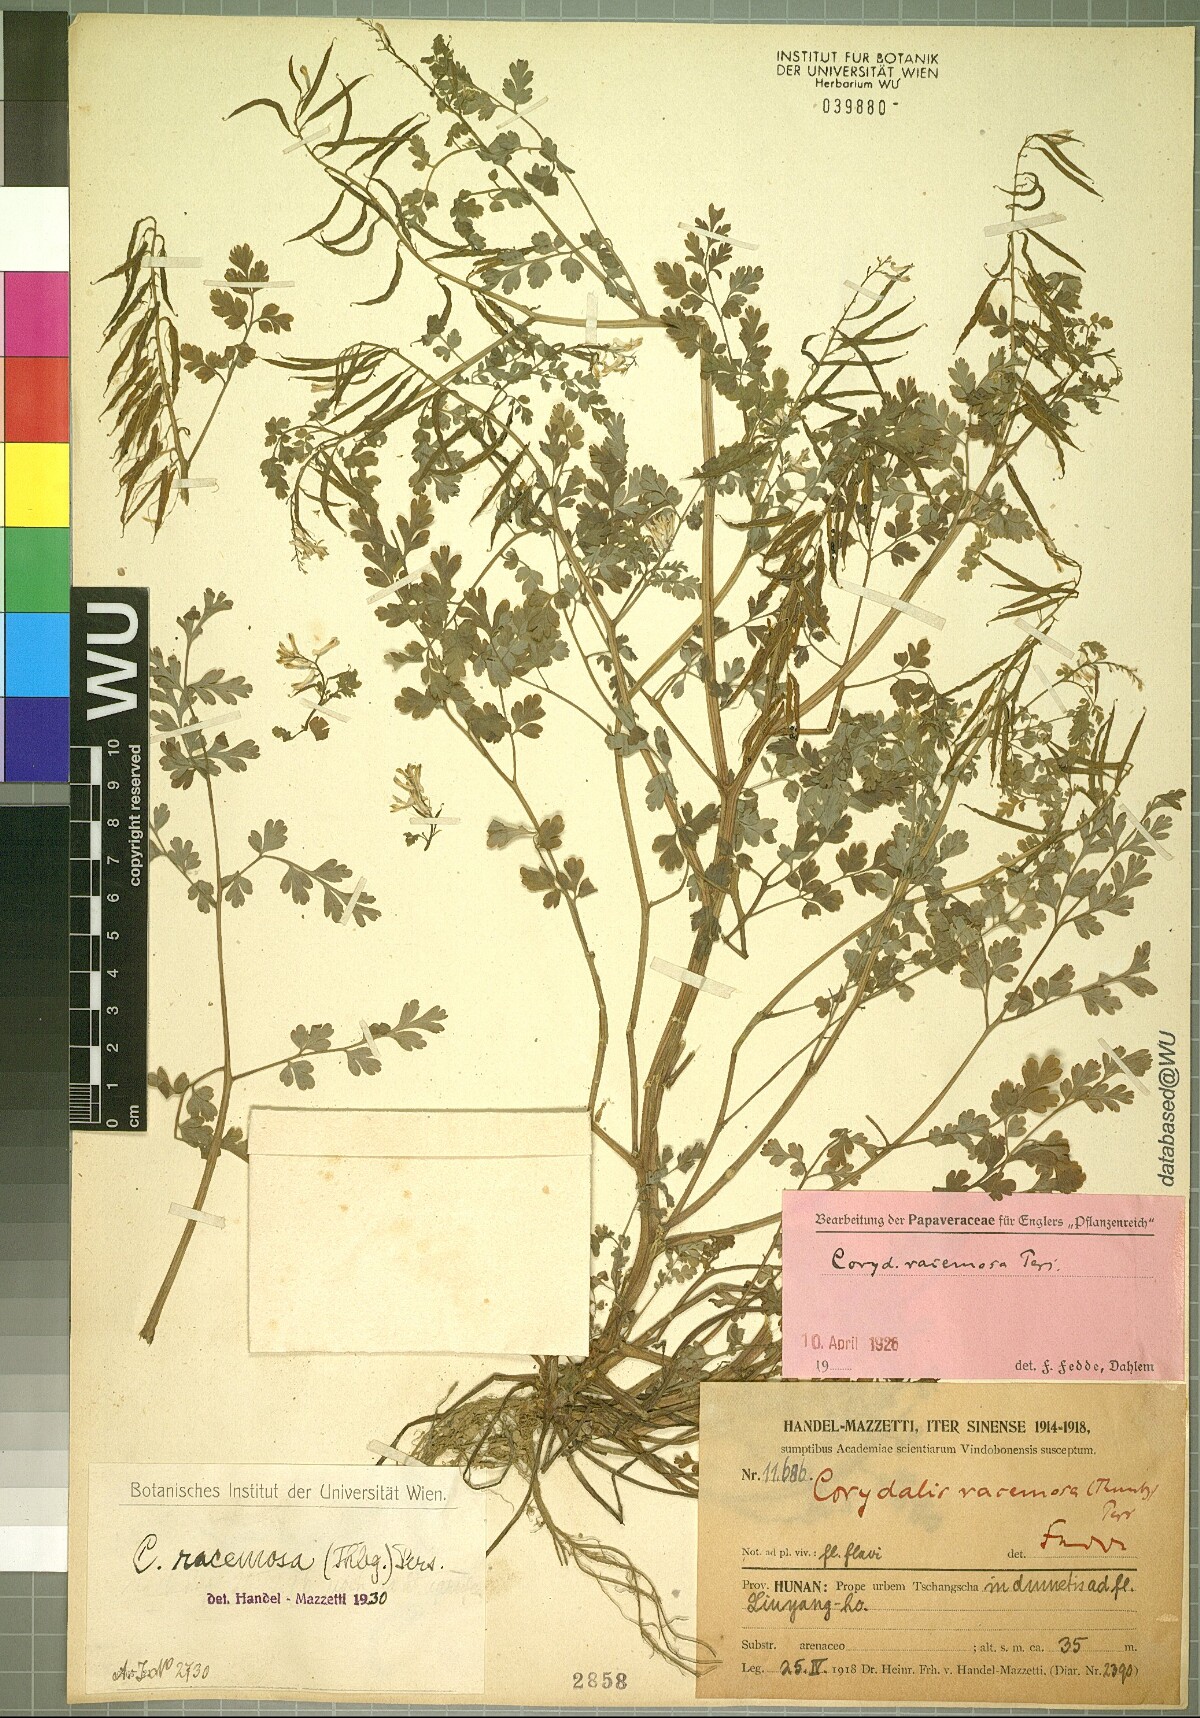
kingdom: Plantae
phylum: Tracheophyta
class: Magnoliopsida
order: Ranunculales
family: Papaveraceae
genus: Corydalis
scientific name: Corydalis racemosa
